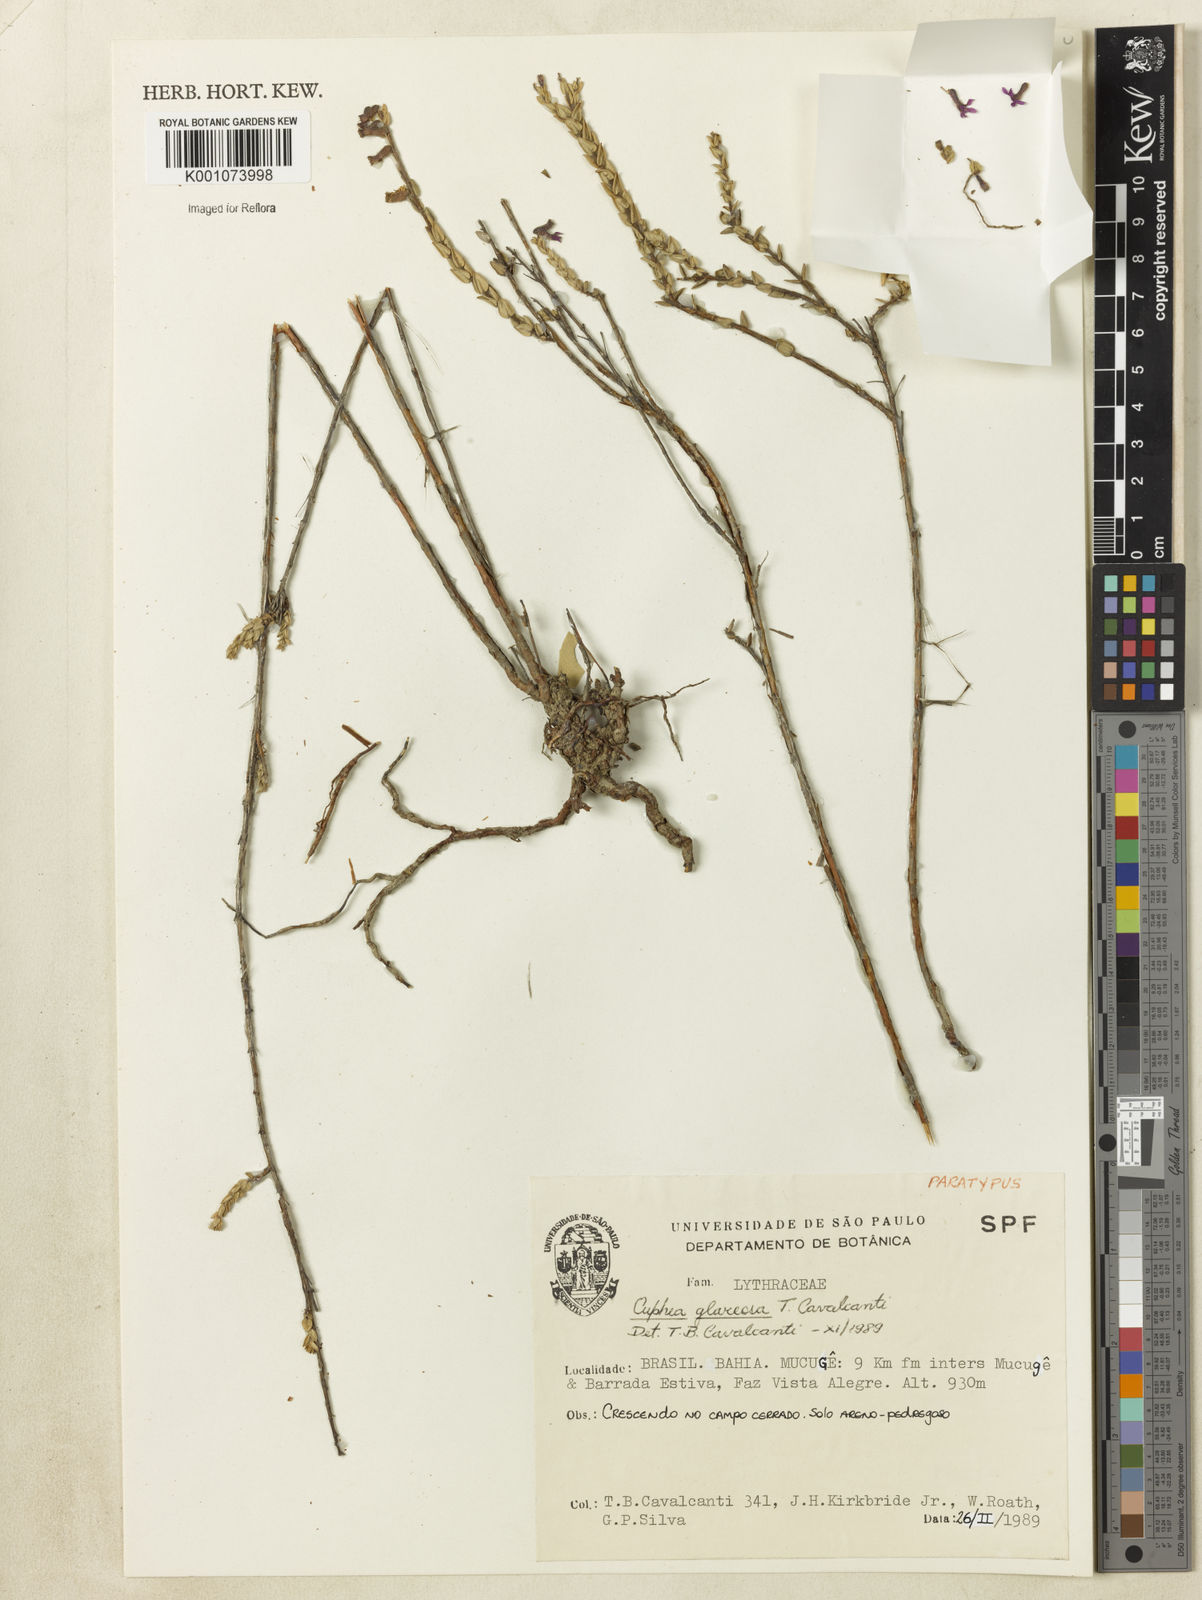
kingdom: Plantae
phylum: Tracheophyta
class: Magnoliopsida
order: Myrtales
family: Lythraceae
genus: Cuphea
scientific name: Cuphea glareosa
